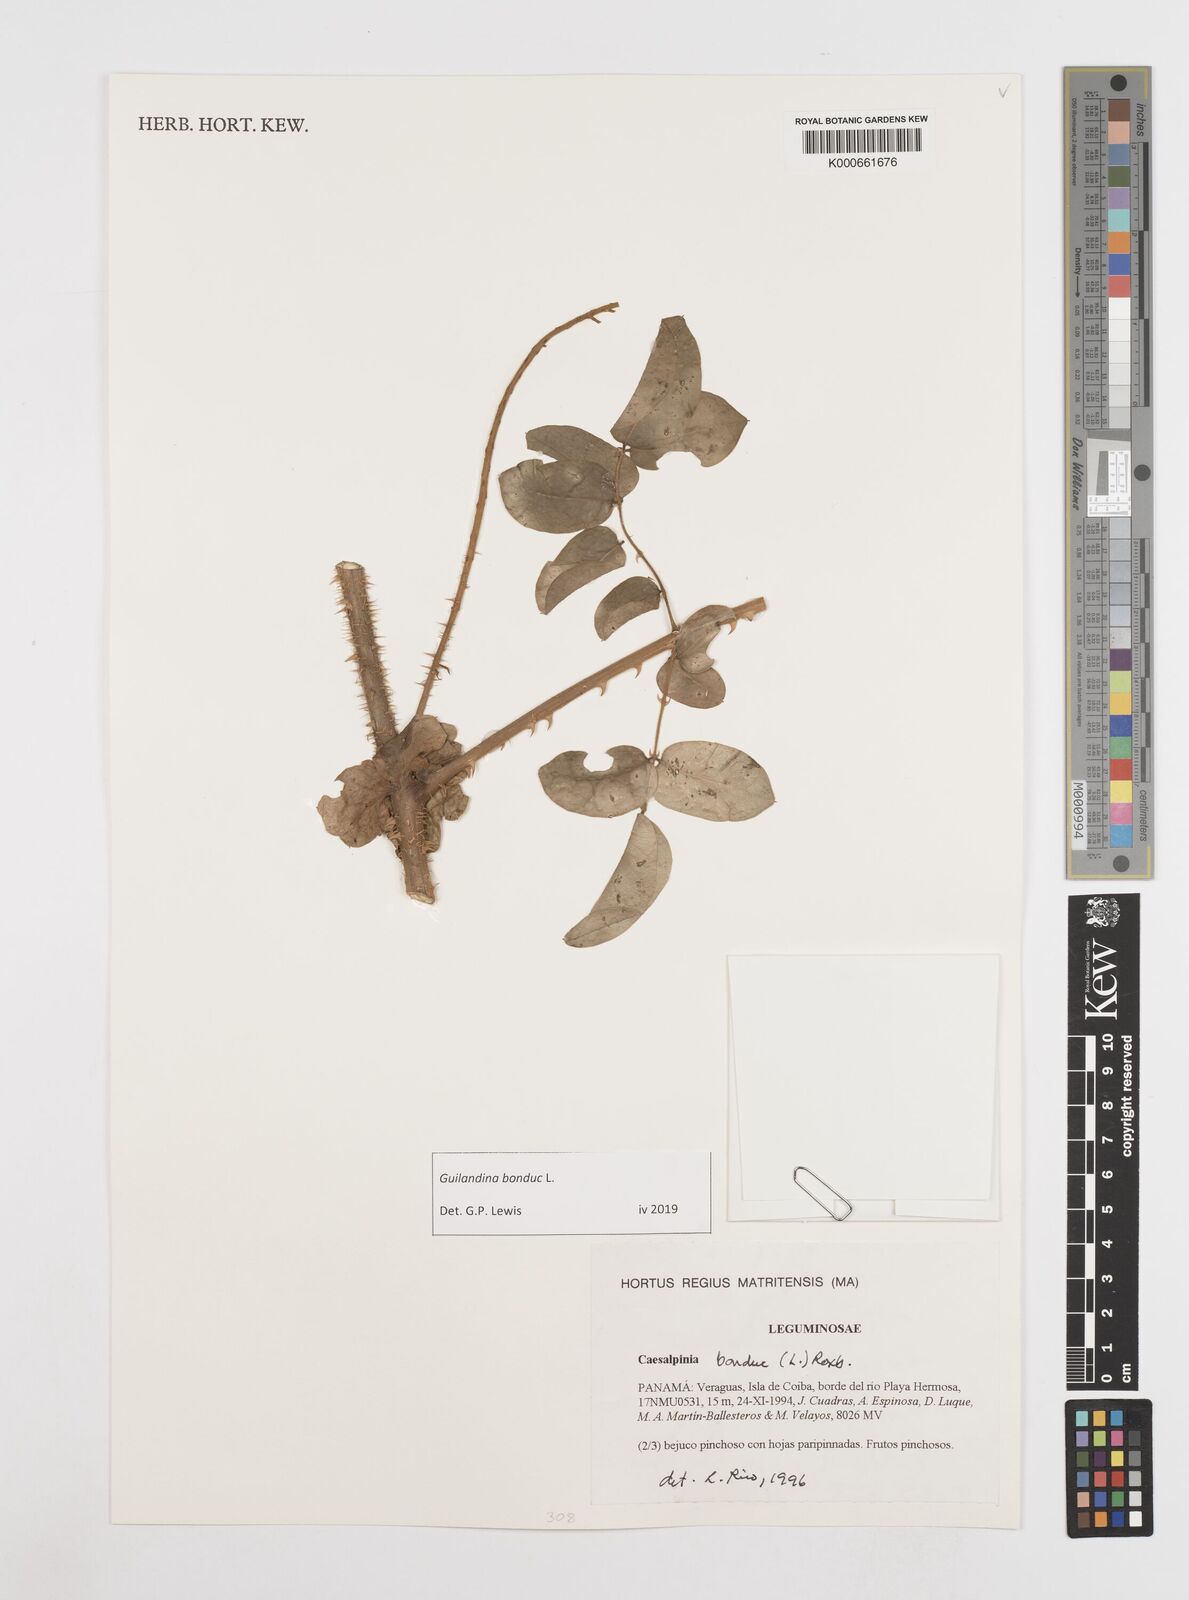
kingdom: Plantae
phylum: Tracheophyta
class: Magnoliopsida
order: Fabales
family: Fabaceae
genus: Guilandina
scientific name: Guilandina bonduc
